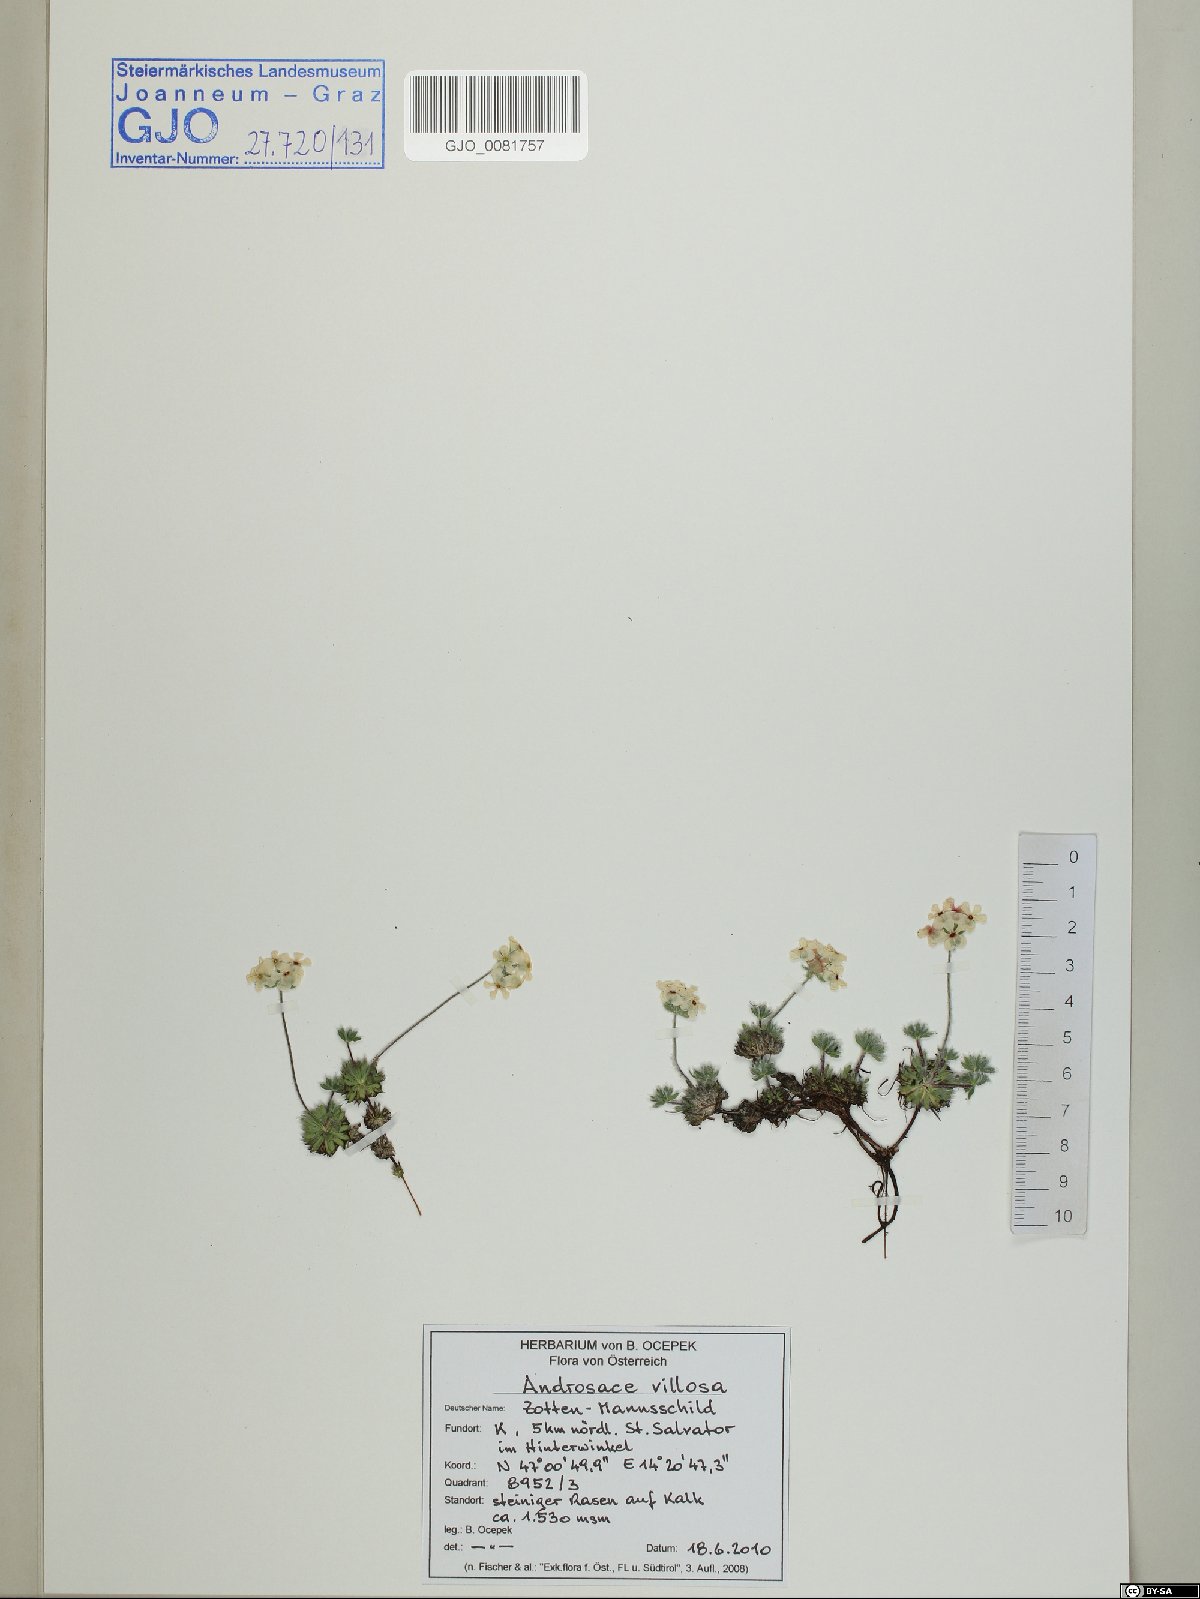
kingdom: Plantae
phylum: Tracheophyta
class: Magnoliopsida
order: Ericales
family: Primulaceae
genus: Androsace
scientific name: Androsace villosa
